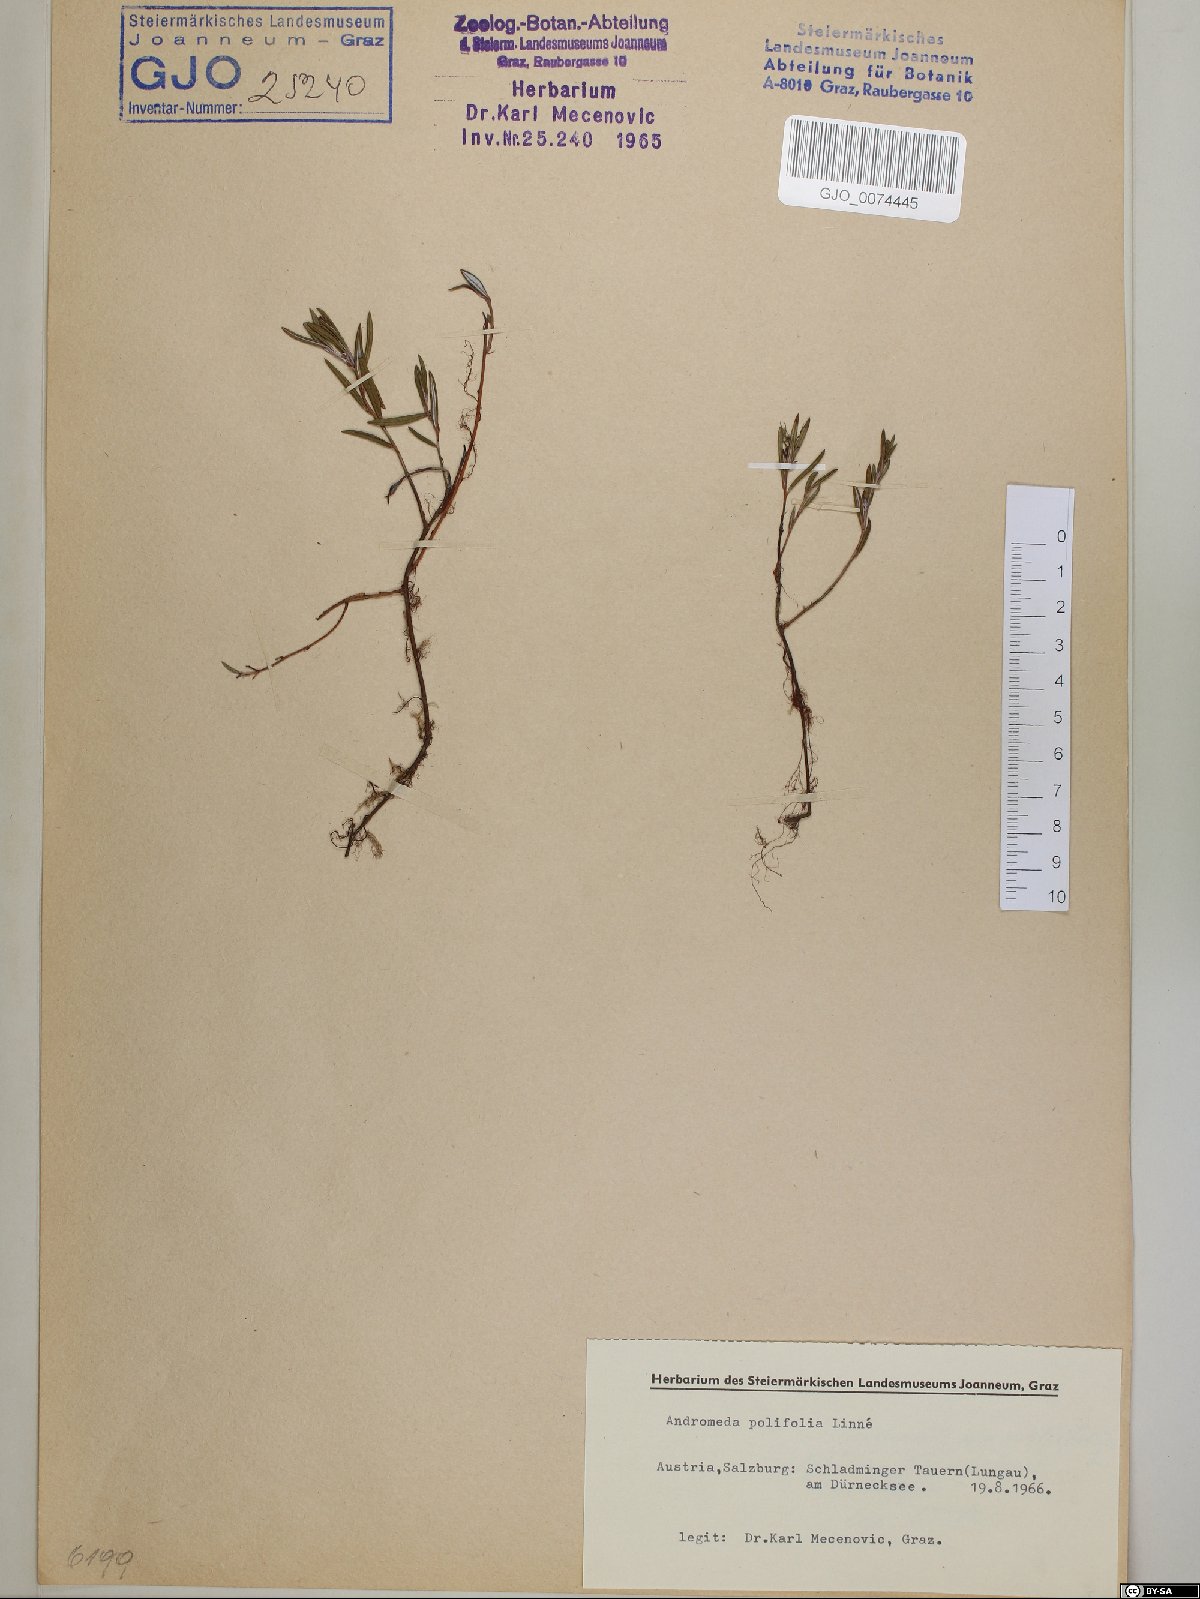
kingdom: Plantae
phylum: Tracheophyta
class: Magnoliopsida
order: Ericales
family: Ericaceae
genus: Andromeda
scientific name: Andromeda polifolia
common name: Bog-rosemary
